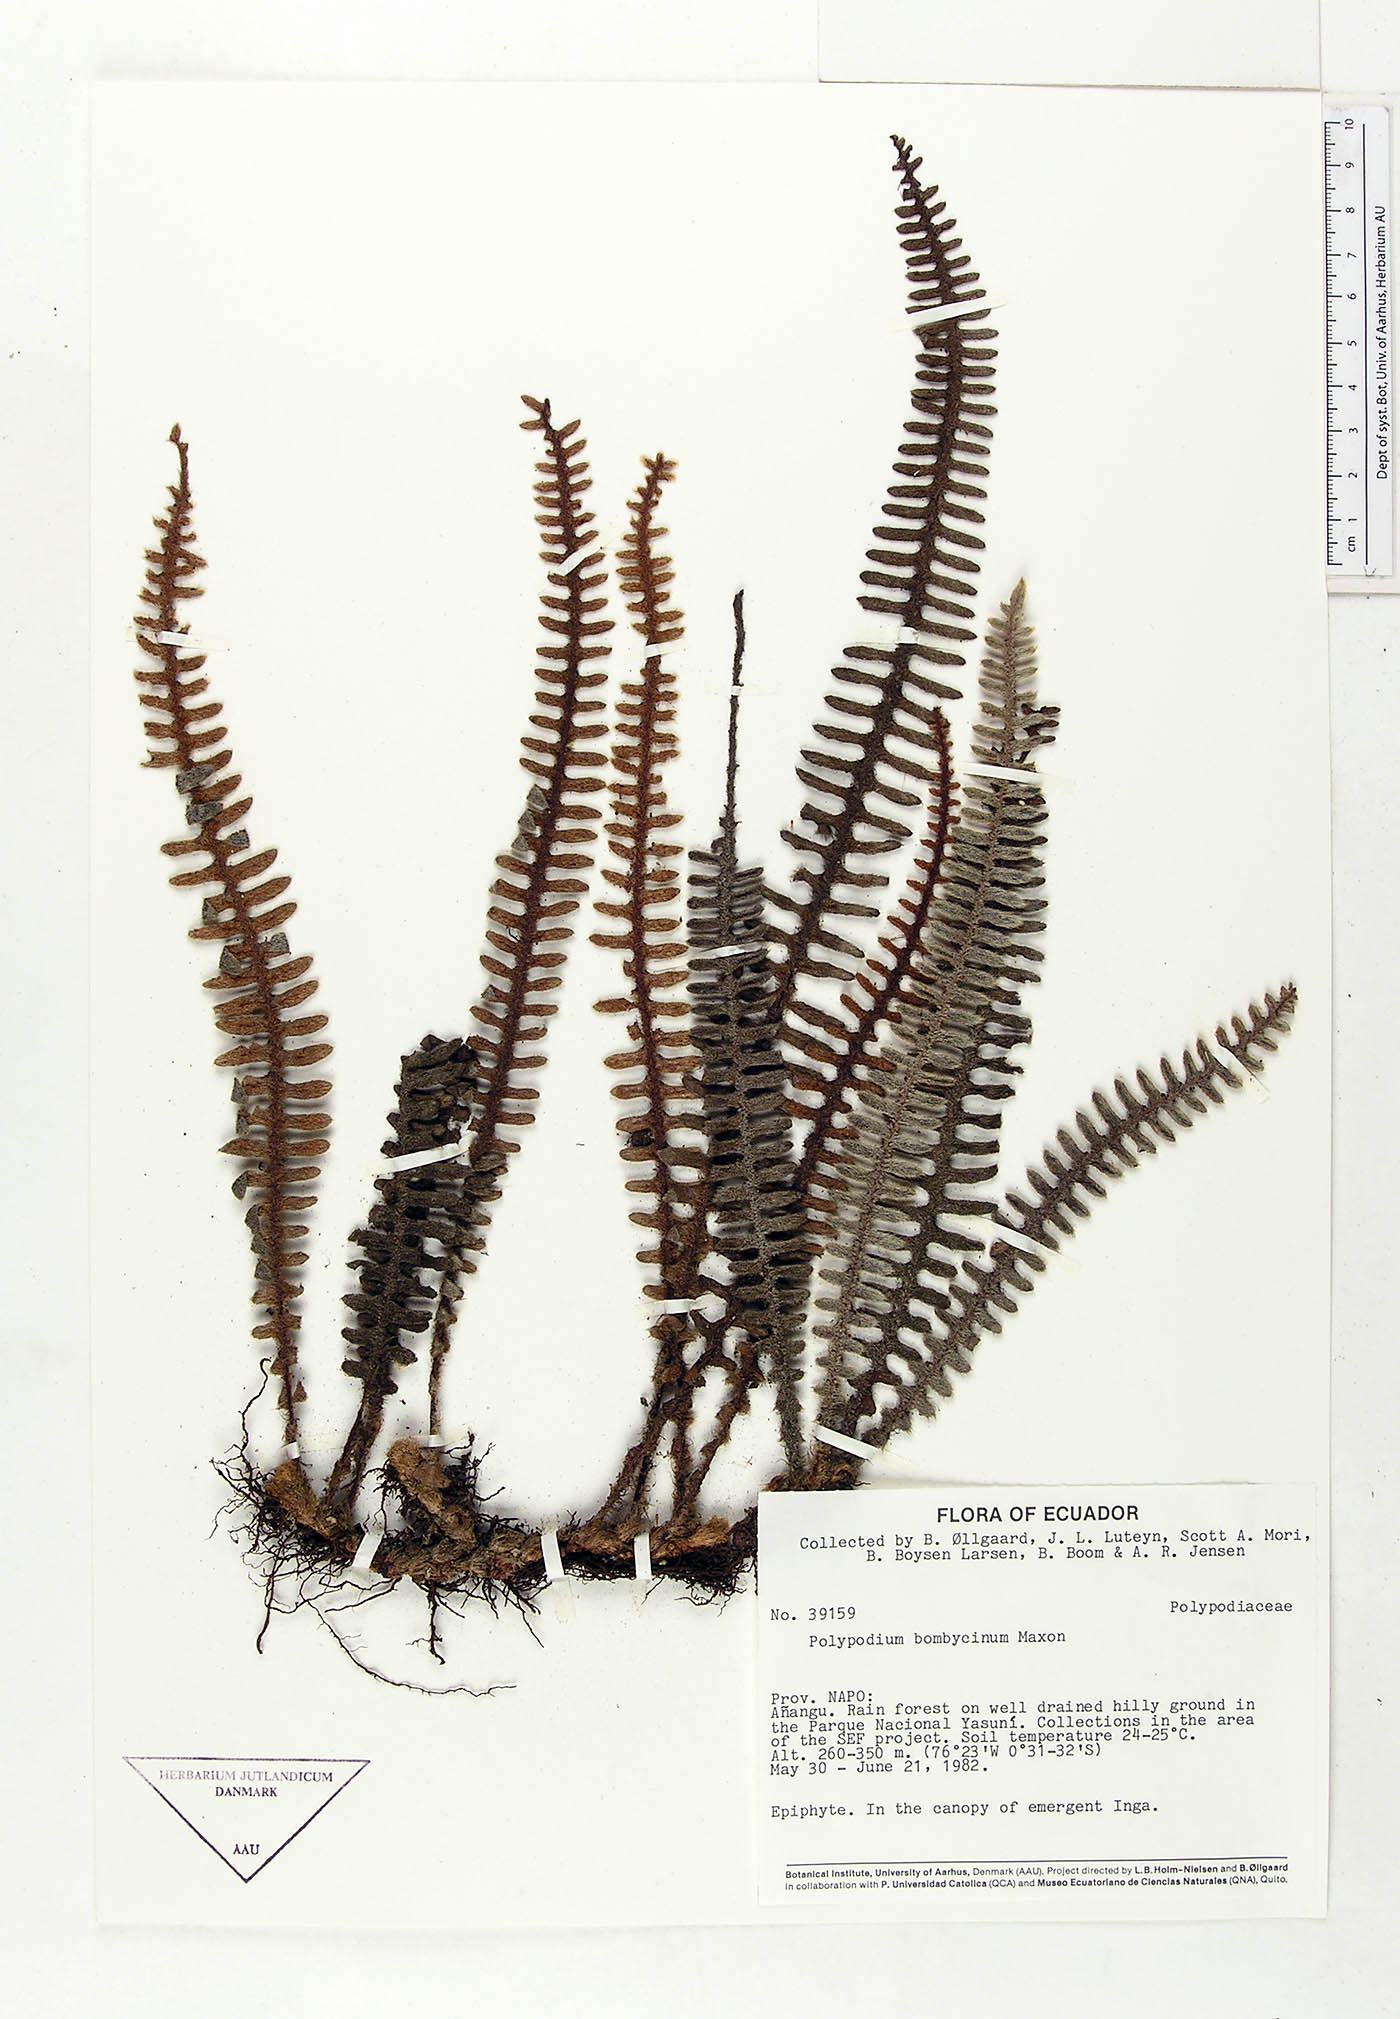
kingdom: Plantae
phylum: Tracheophyta
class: Polypodiopsida
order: Polypodiales
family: Polypodiaceae
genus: Pleopeltis
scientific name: Pleopeltis bombycina
